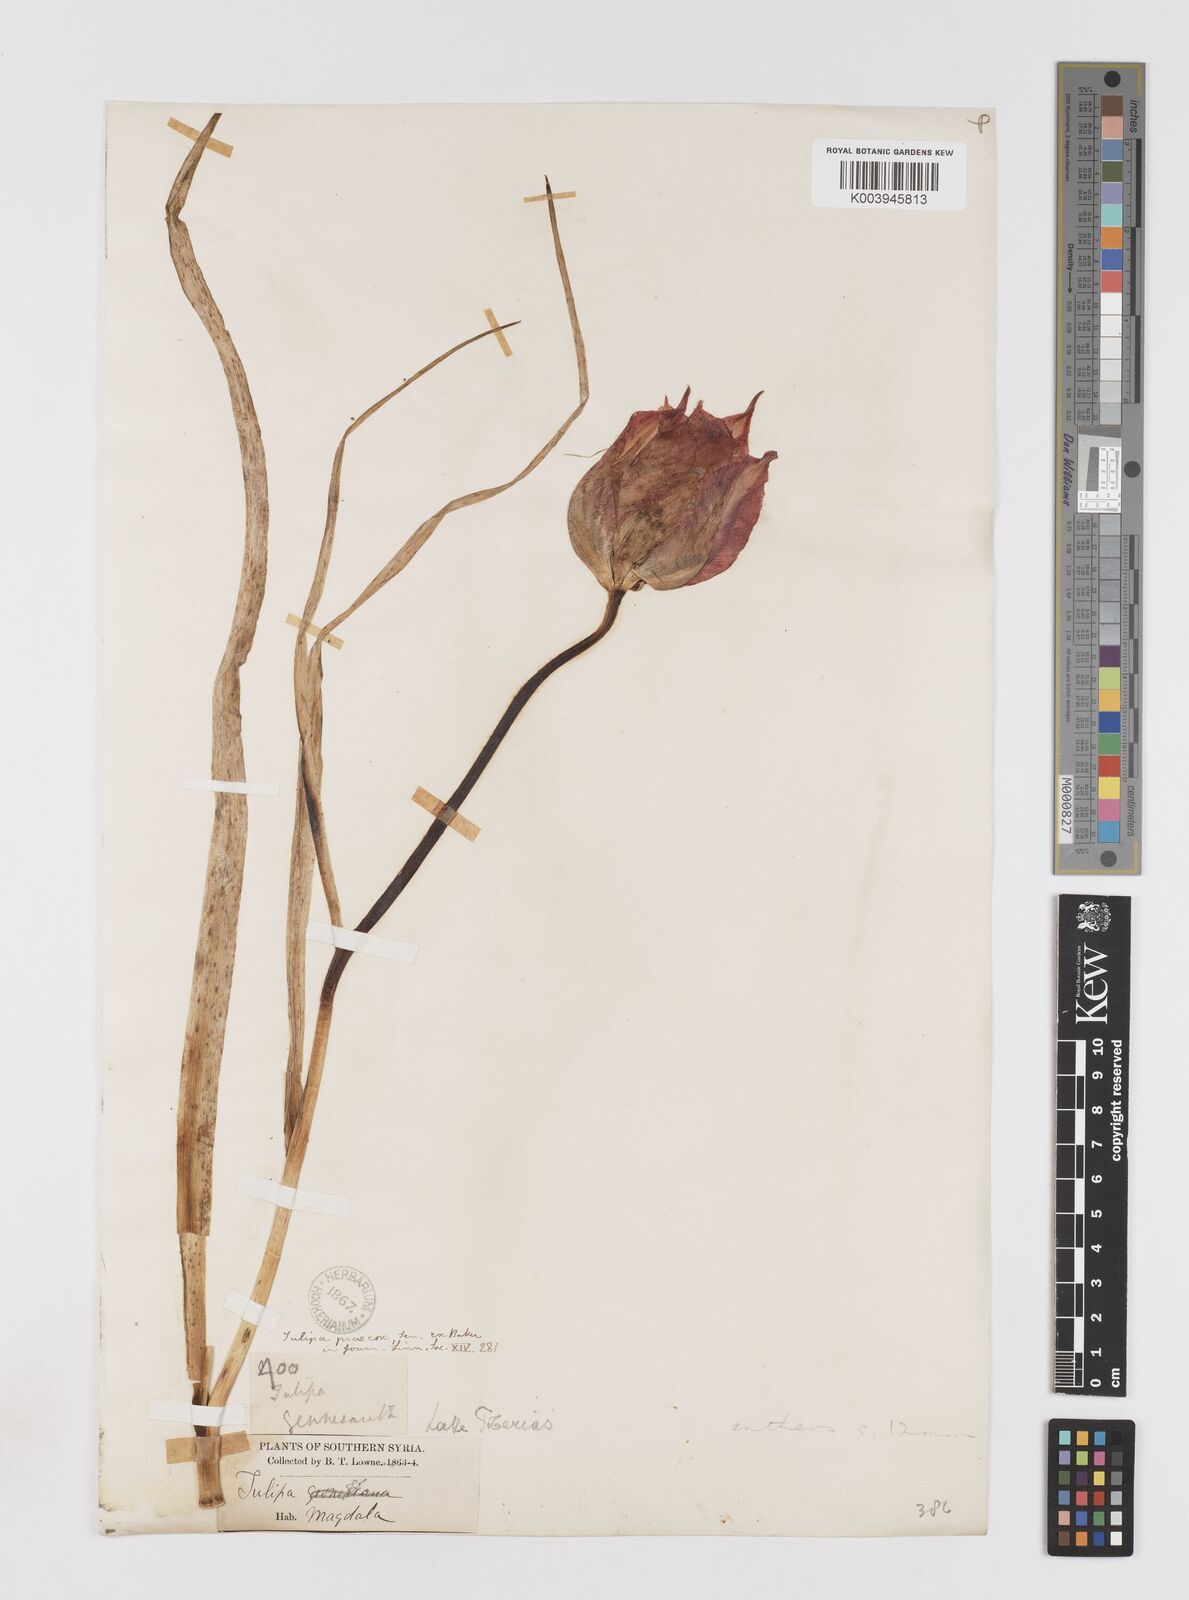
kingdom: Plantae
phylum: Tracheophyta
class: Liliopsida
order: Liliales
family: Liliaceae
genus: Tulipa
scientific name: Tulipa aleppensis
